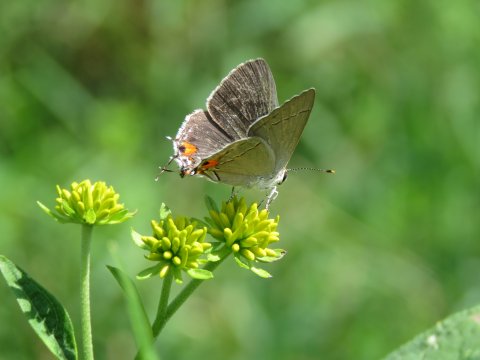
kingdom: Animalia
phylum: Arthropoda
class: Insecta
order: Lepidoptera
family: Lycaenidae
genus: Strymon
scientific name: Strymon melinus
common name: Gray Hairstreak
